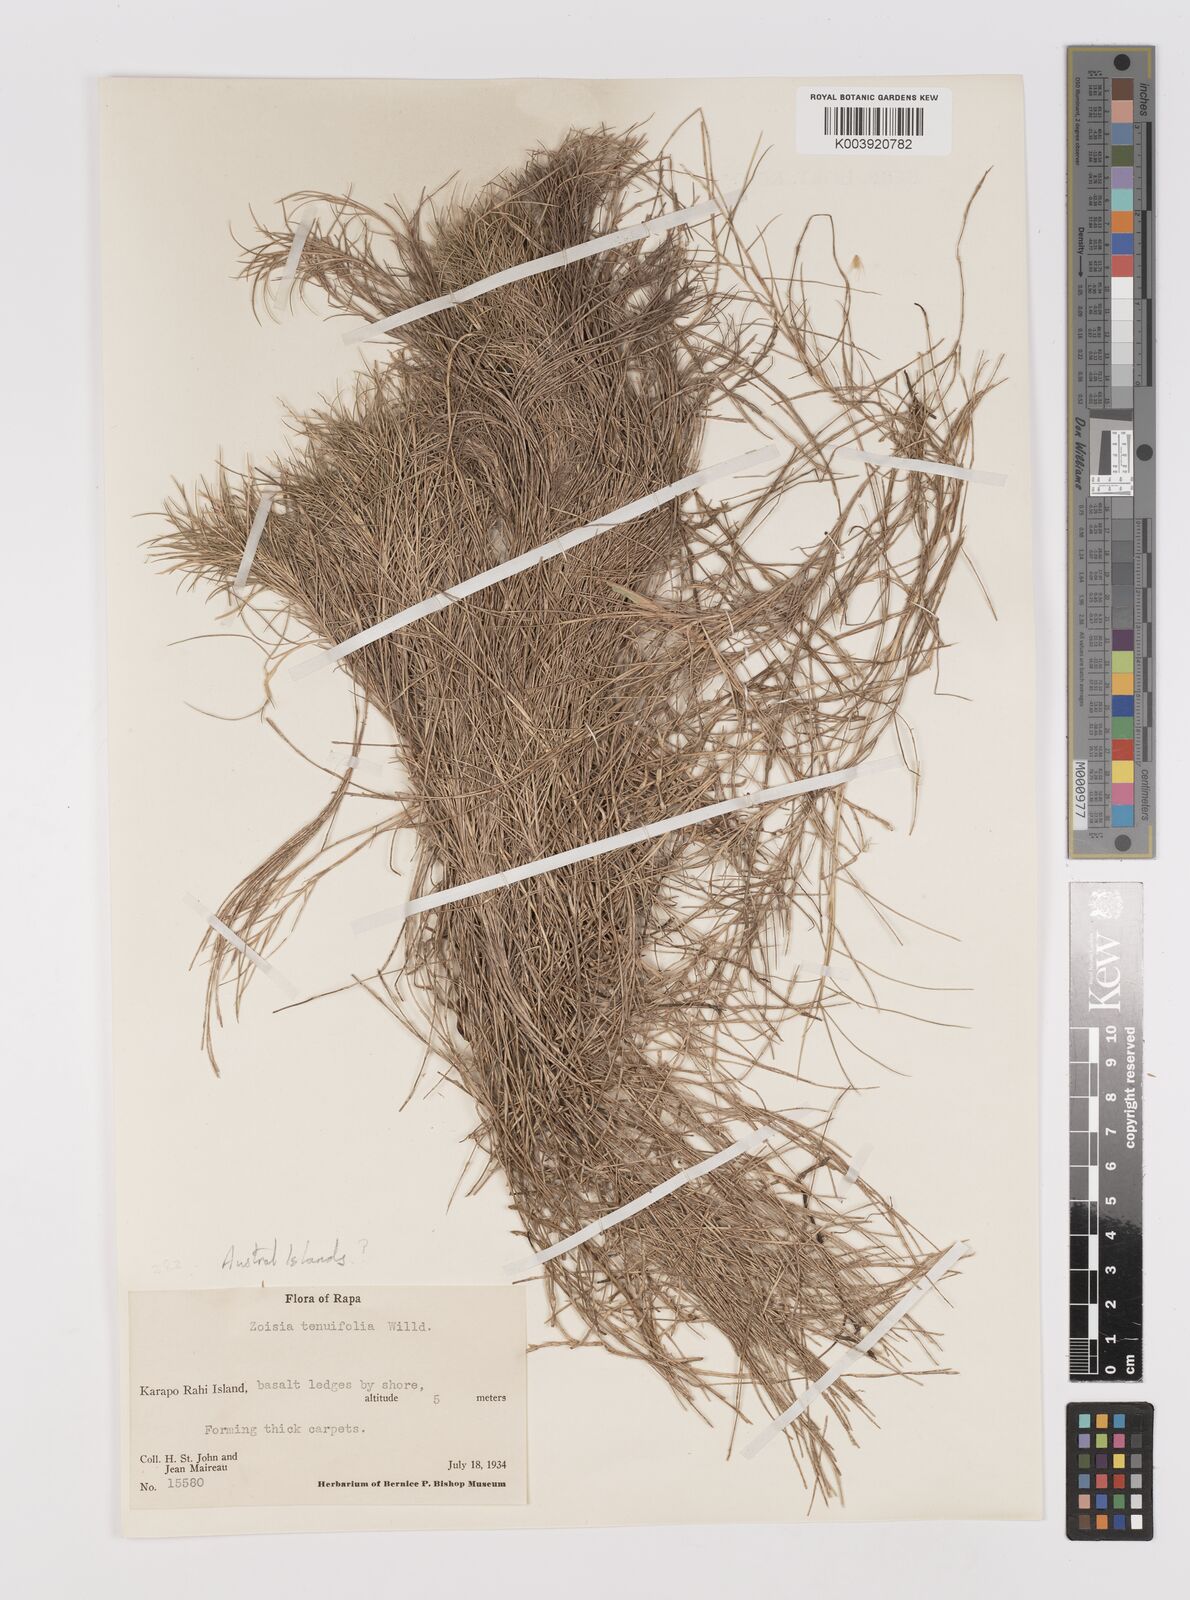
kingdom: Plantae
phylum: Tracheophyta
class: Liliopsida
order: Poales
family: Poaceae
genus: Zoysia
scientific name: Zoysia matrella
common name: Manila grass
